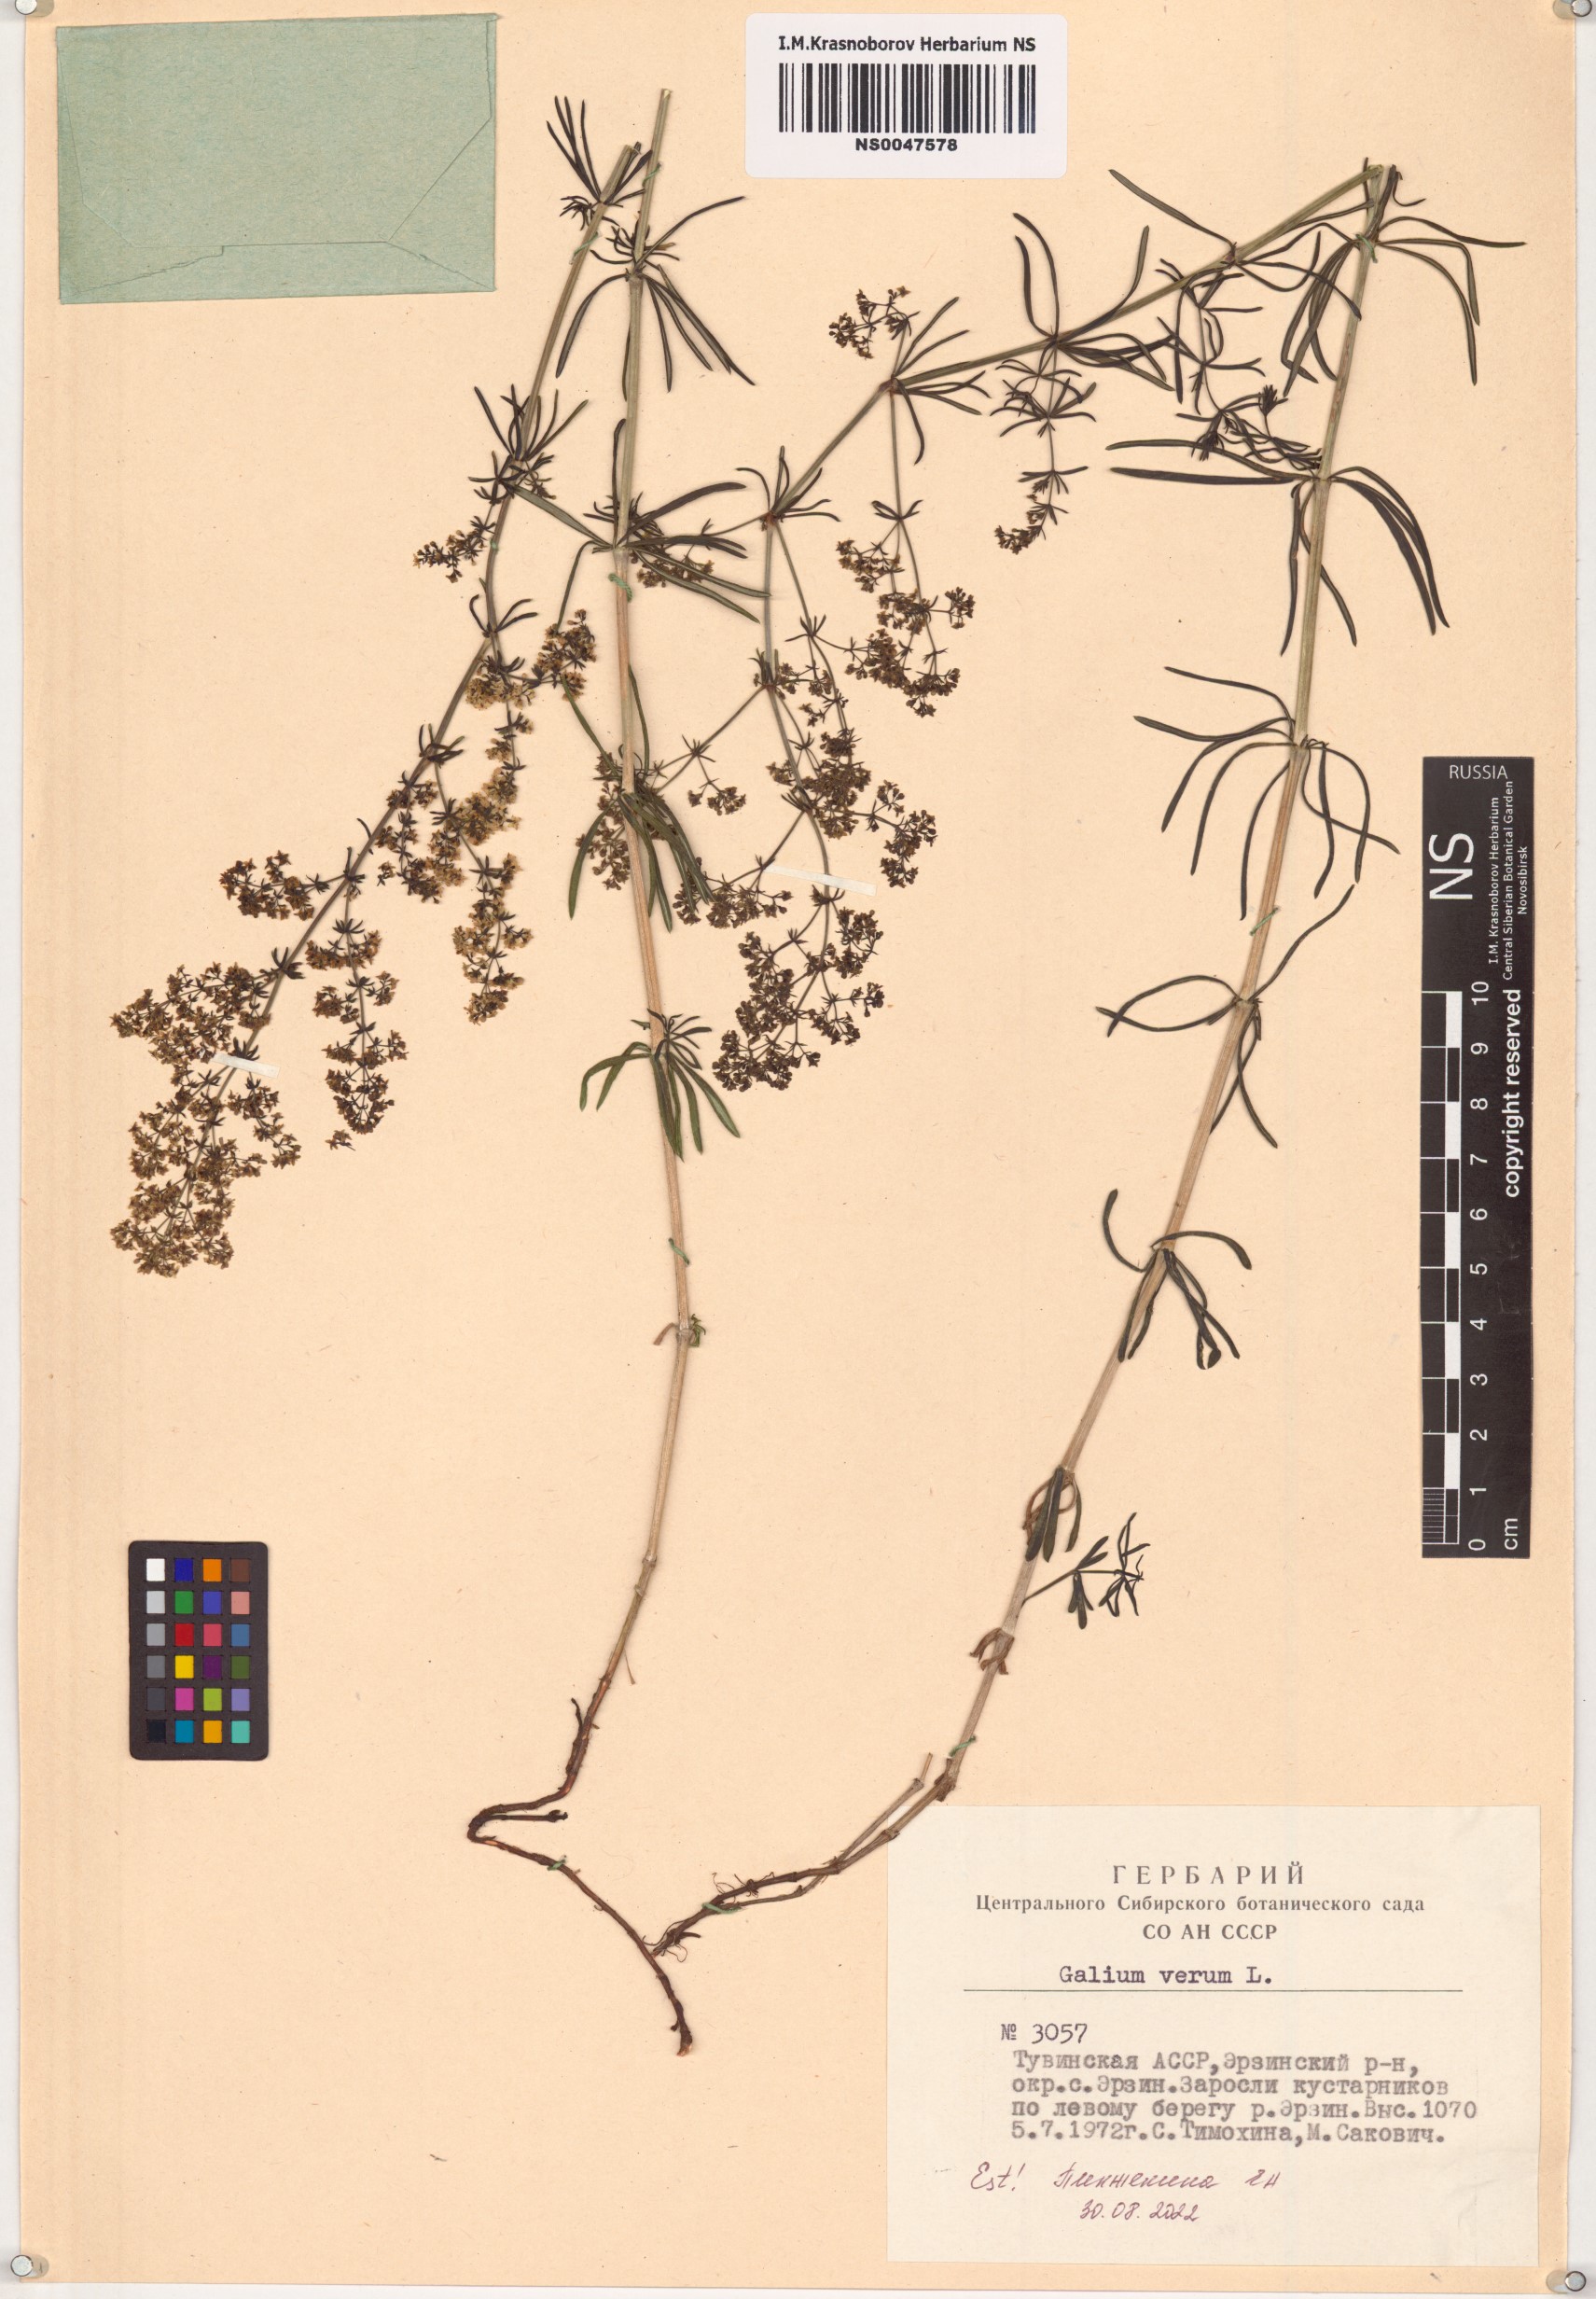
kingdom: Plantae
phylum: Tracheophyta
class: Magnoliopsida
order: Gentianales
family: Rubiaceae
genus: Galium
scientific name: Galium verum
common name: Lady's bedstraw
